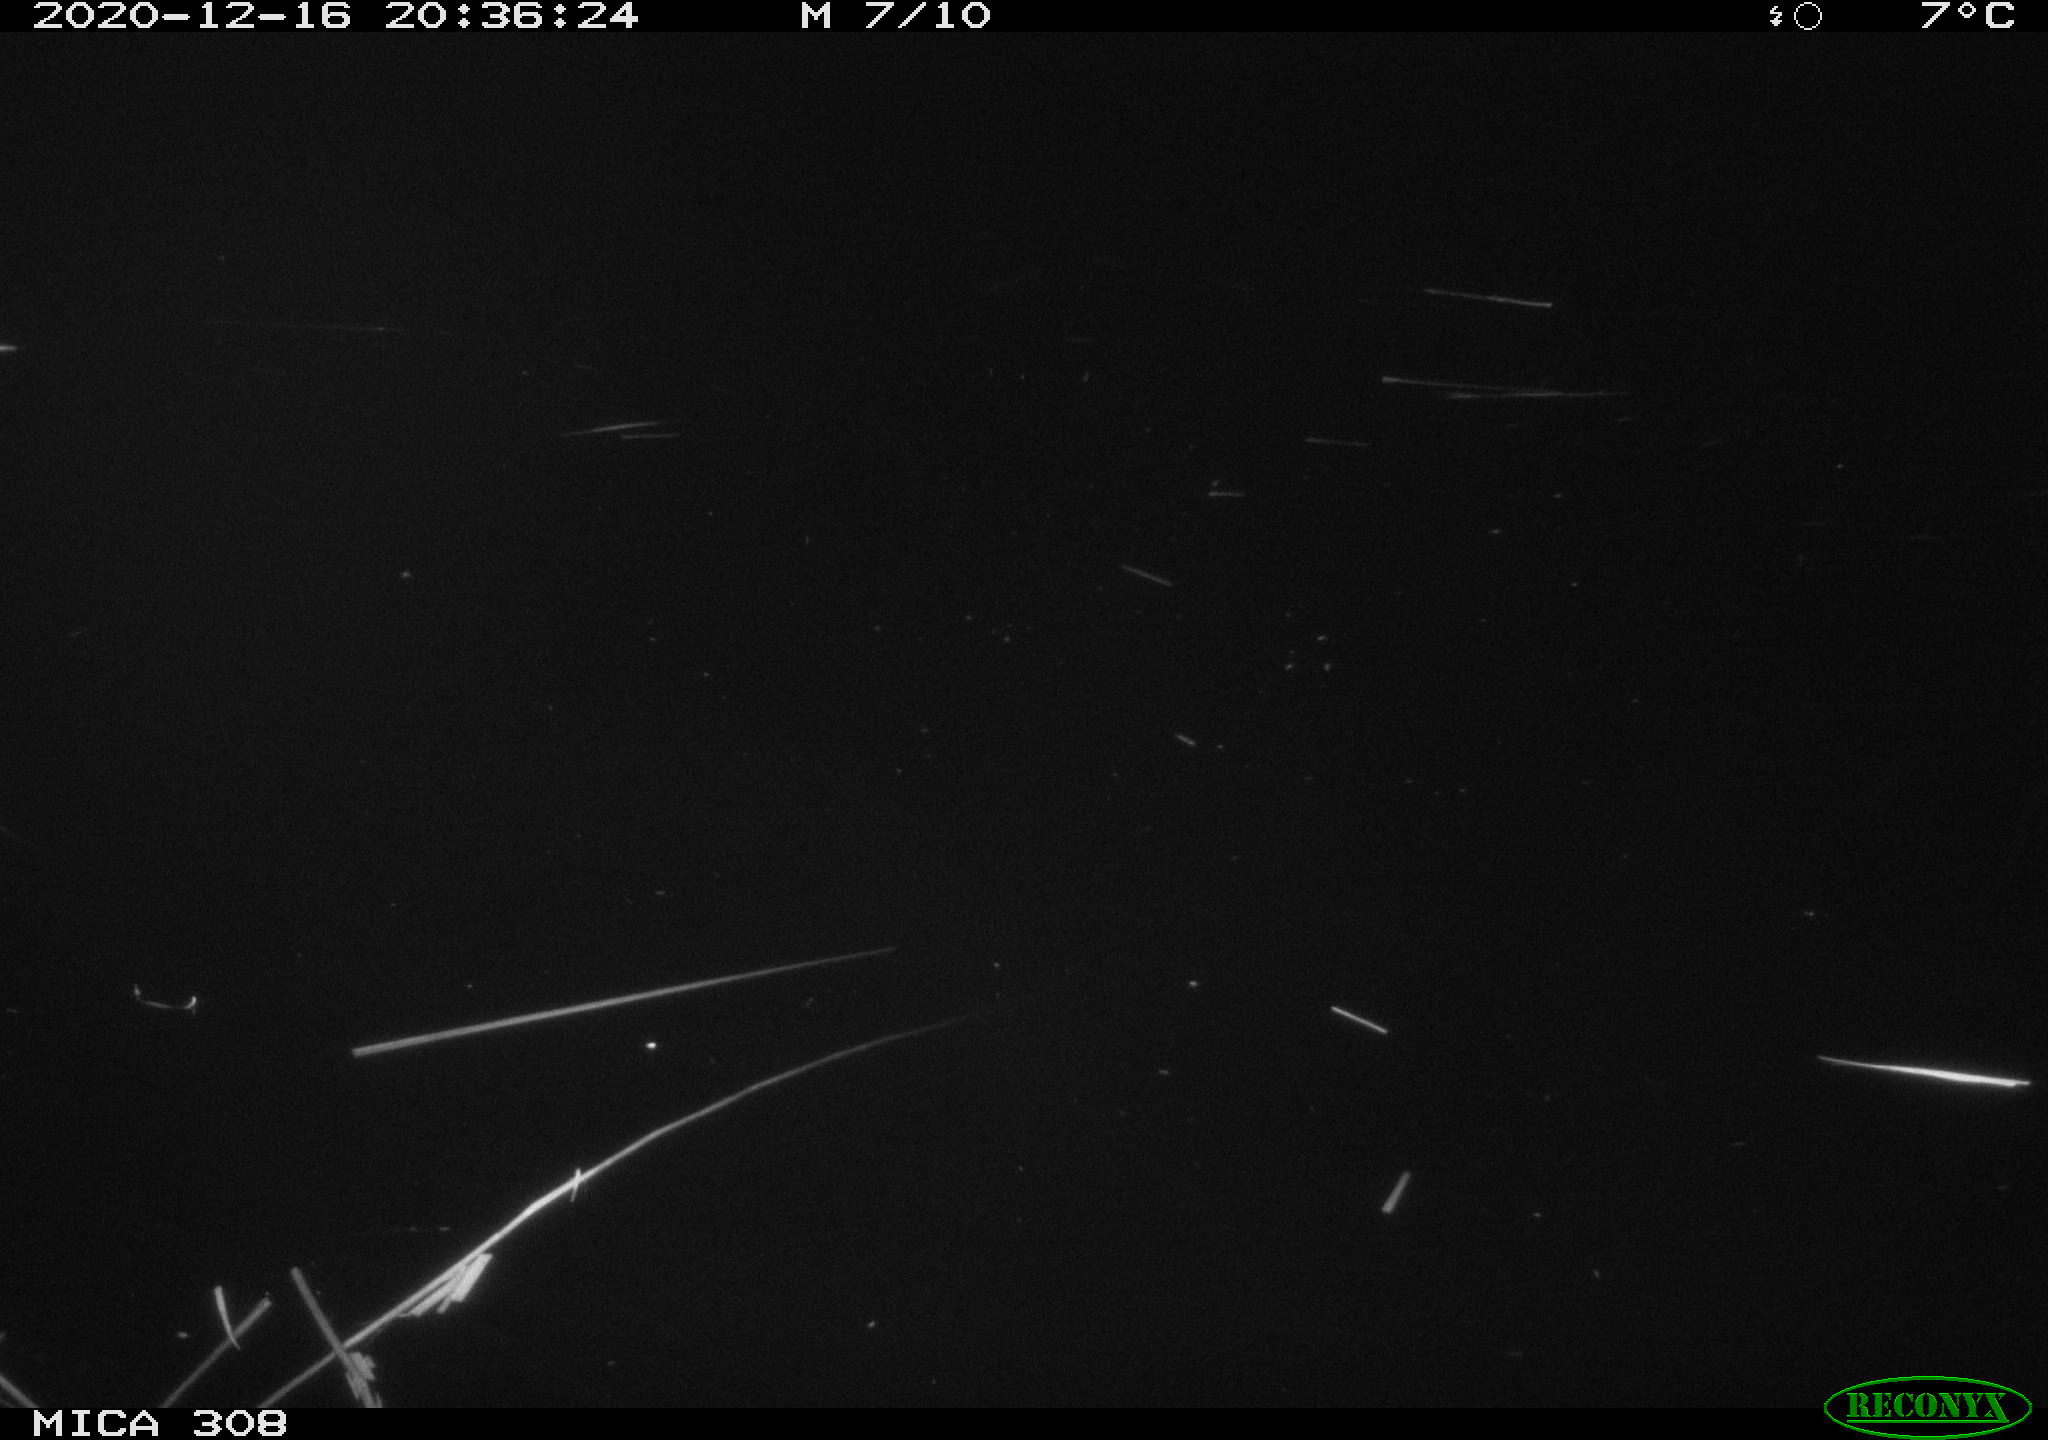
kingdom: Animalia
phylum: Chordata
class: Aves
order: Anseriformes
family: Anatidae
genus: Anas
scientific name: Anas platyrhynchos
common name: Mallard
